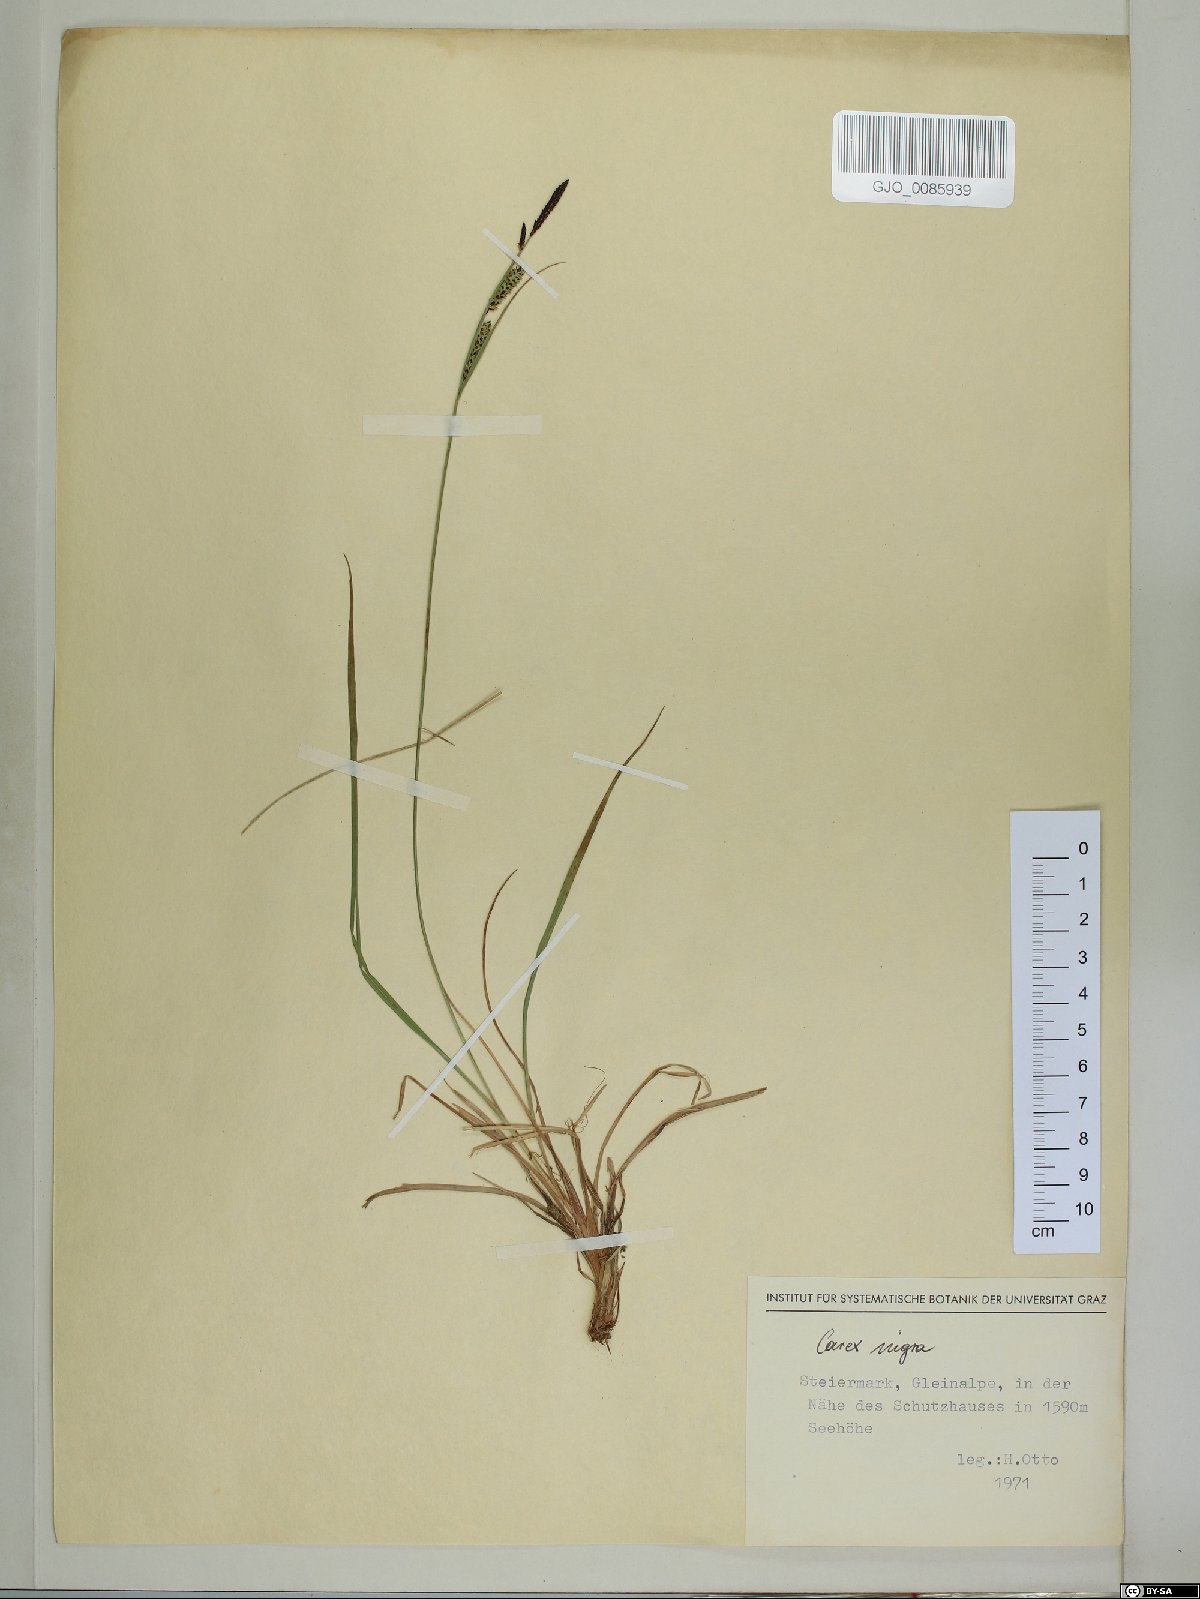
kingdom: Plantae
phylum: Tracheophyta
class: Liliopsida
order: Poales
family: Cyperaceae
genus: Carex
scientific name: Carex nigra
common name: Common sedge
